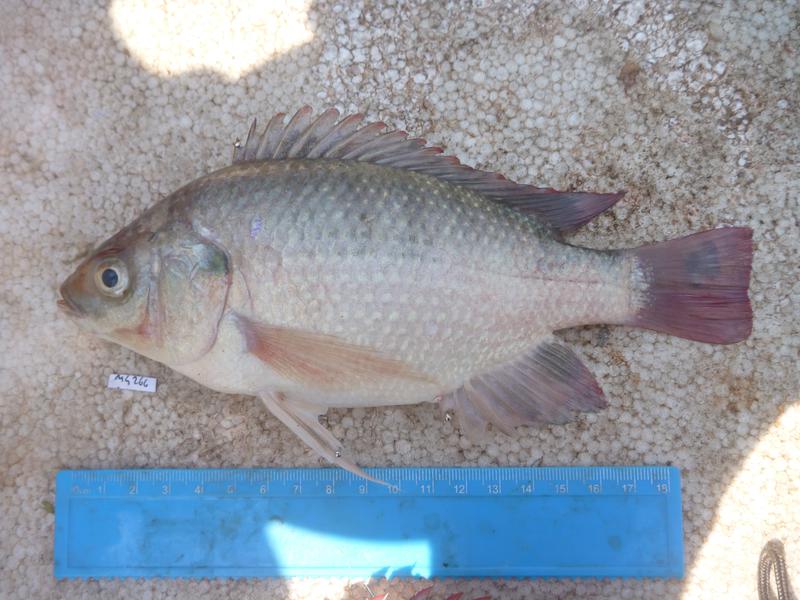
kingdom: Animalia
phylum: Chordata
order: Perciformes
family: Cichlidae
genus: Oreochromis
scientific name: Oreochromis esculentus
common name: Carp
